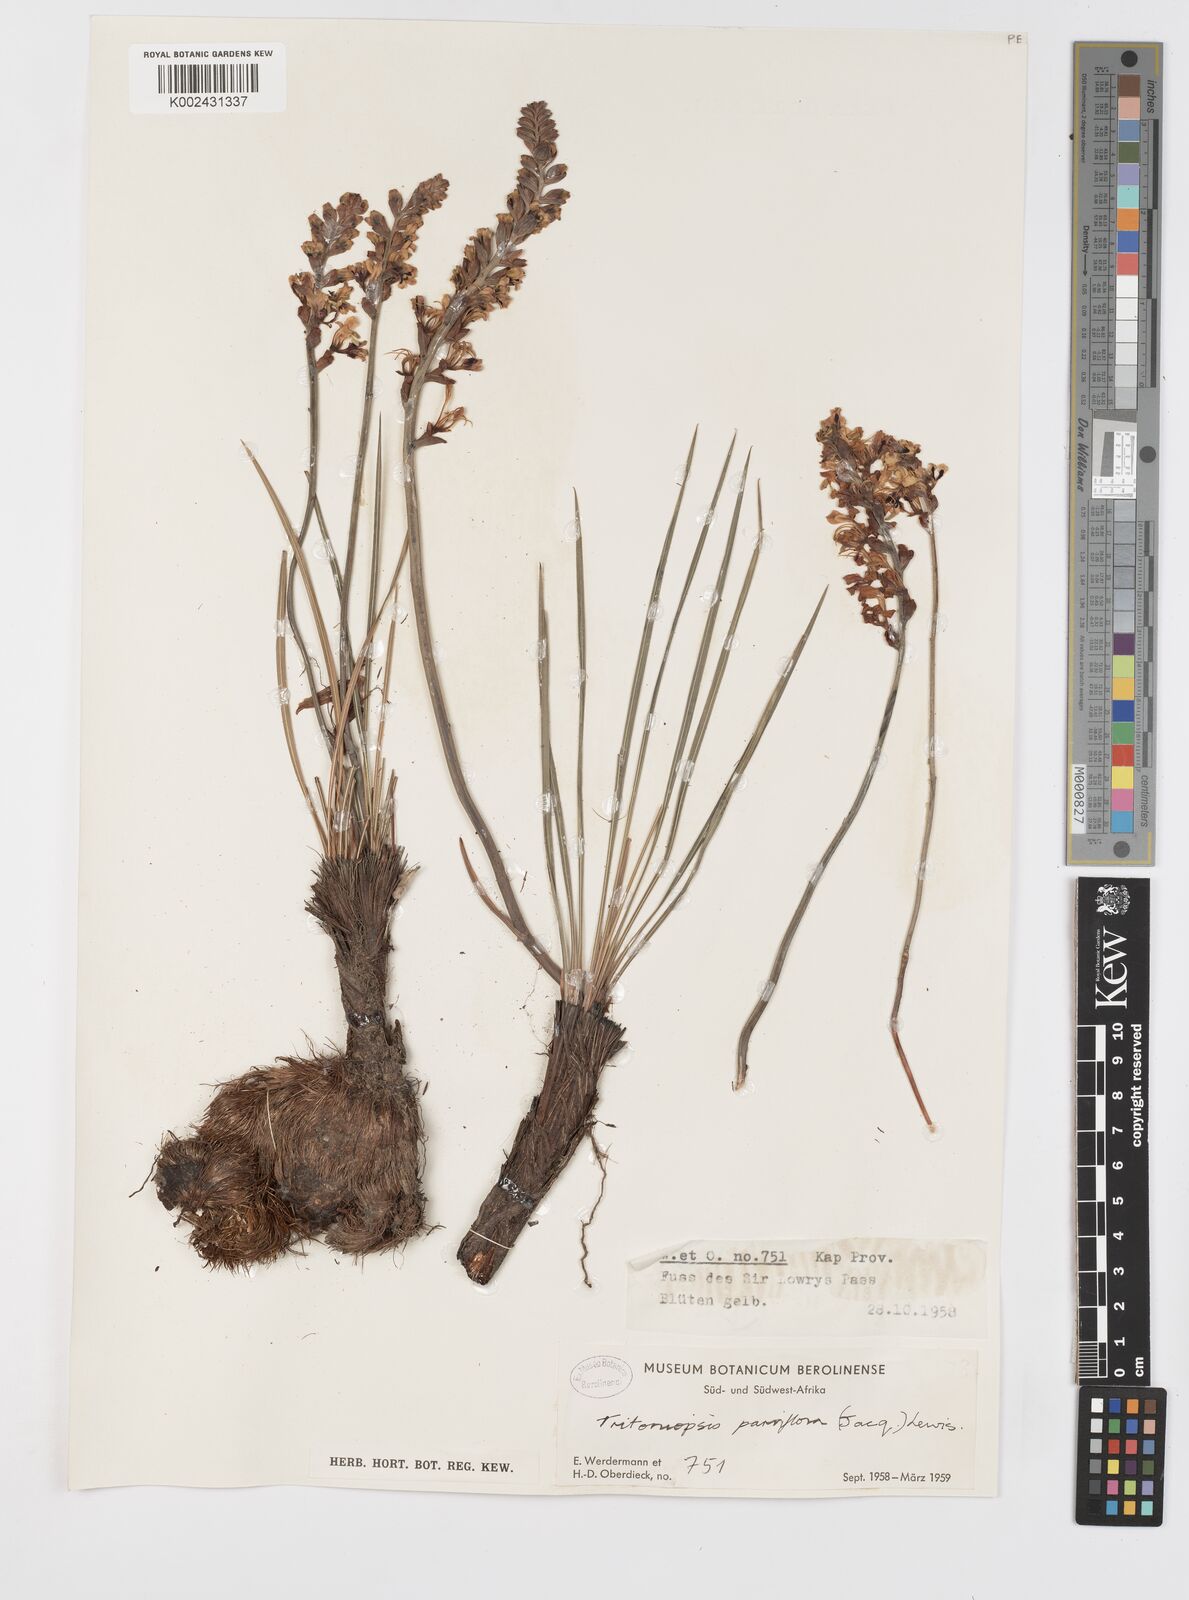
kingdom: Plantae
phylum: Tracheophyta
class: Liliopsida
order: Asparagales
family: Iridaceae
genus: Tritoniopsis
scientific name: Tritoniopsis parviflora
